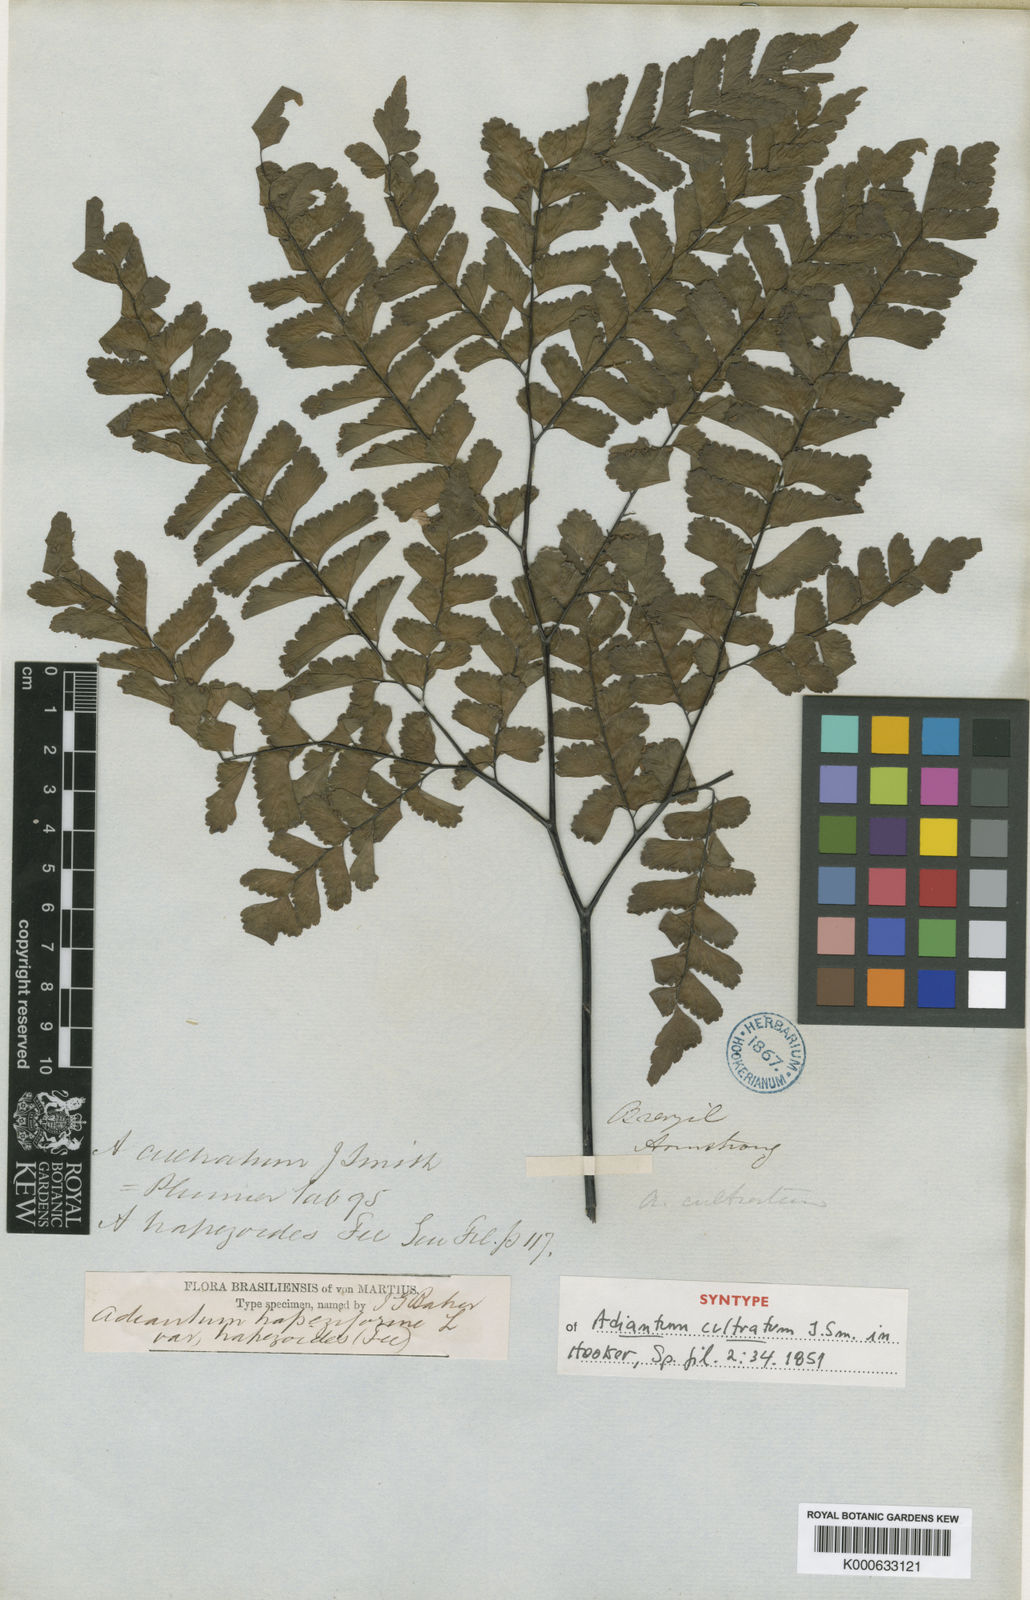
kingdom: Plantae
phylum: Tracheophyta
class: Polypodiopsida
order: Polypodiales
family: Pteridaceae
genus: Adiantum
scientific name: Adiantum abscissum
